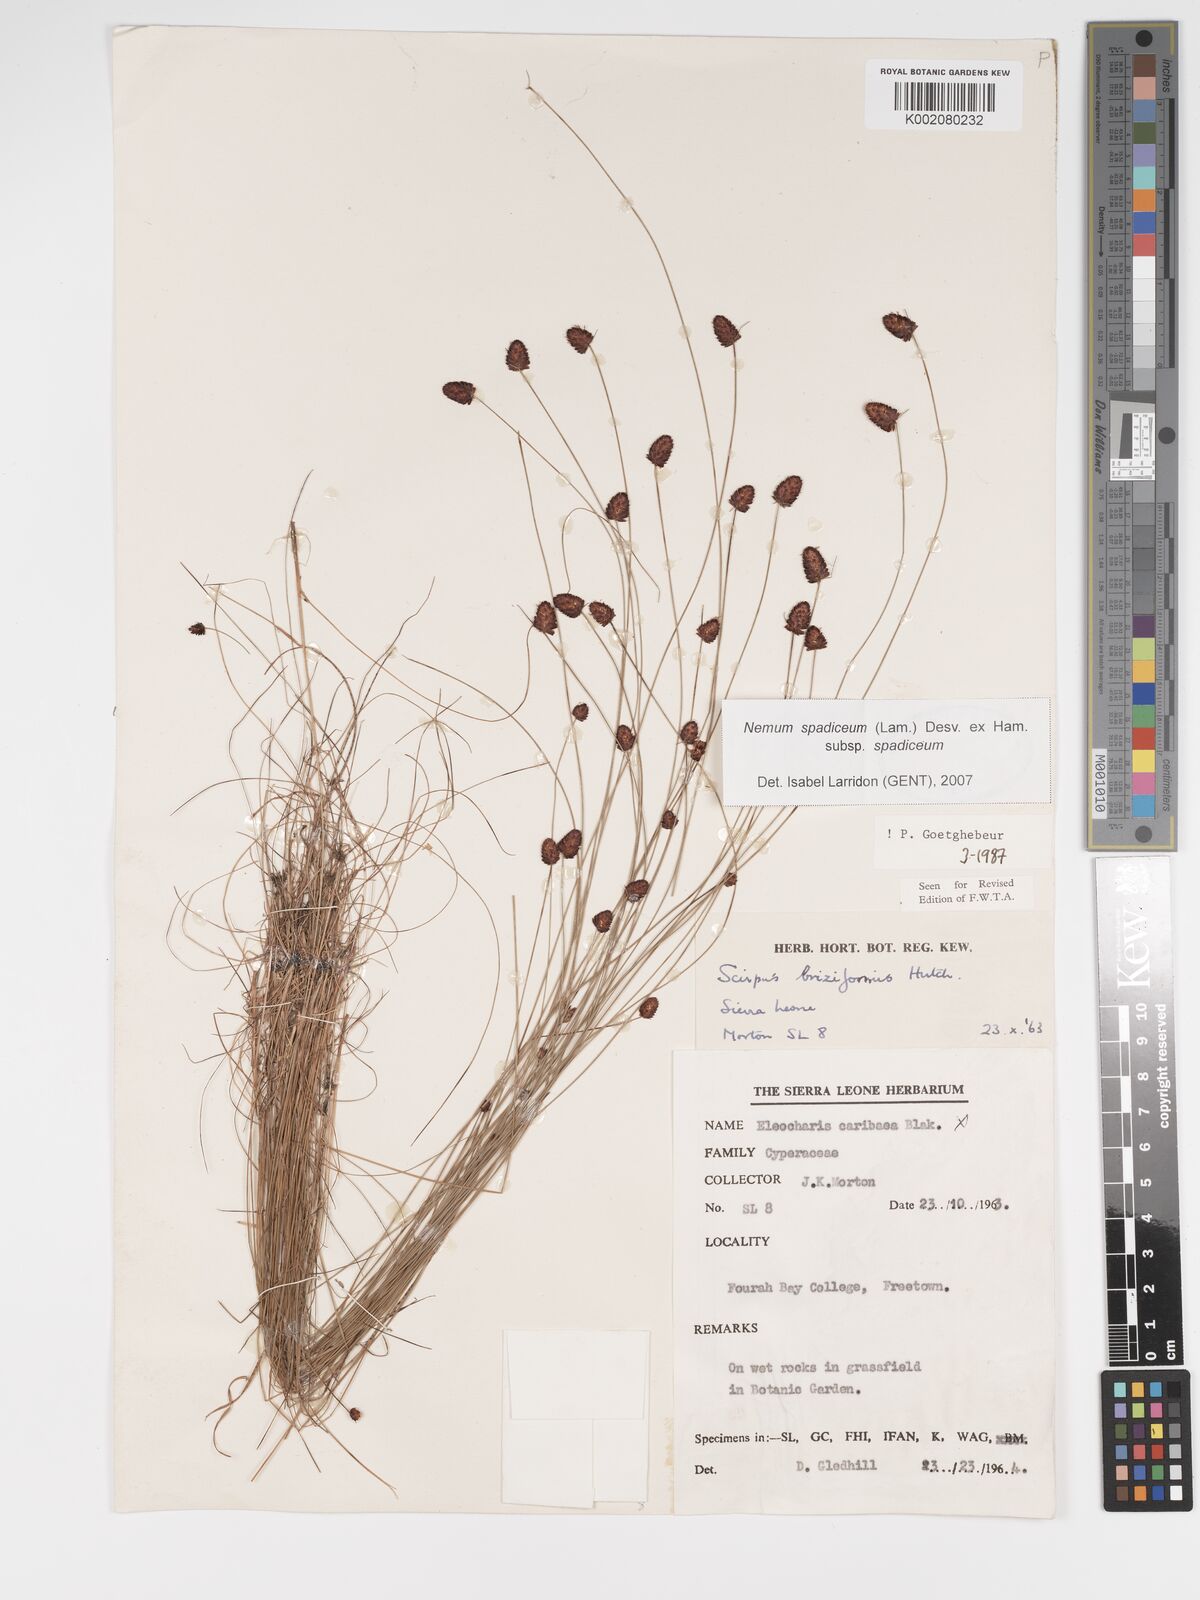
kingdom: Plantae
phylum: Tracheophyta
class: Liliopsida
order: Poales
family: Cyperaceae
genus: Bulbostylis
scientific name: Bulbostylis briziformis
